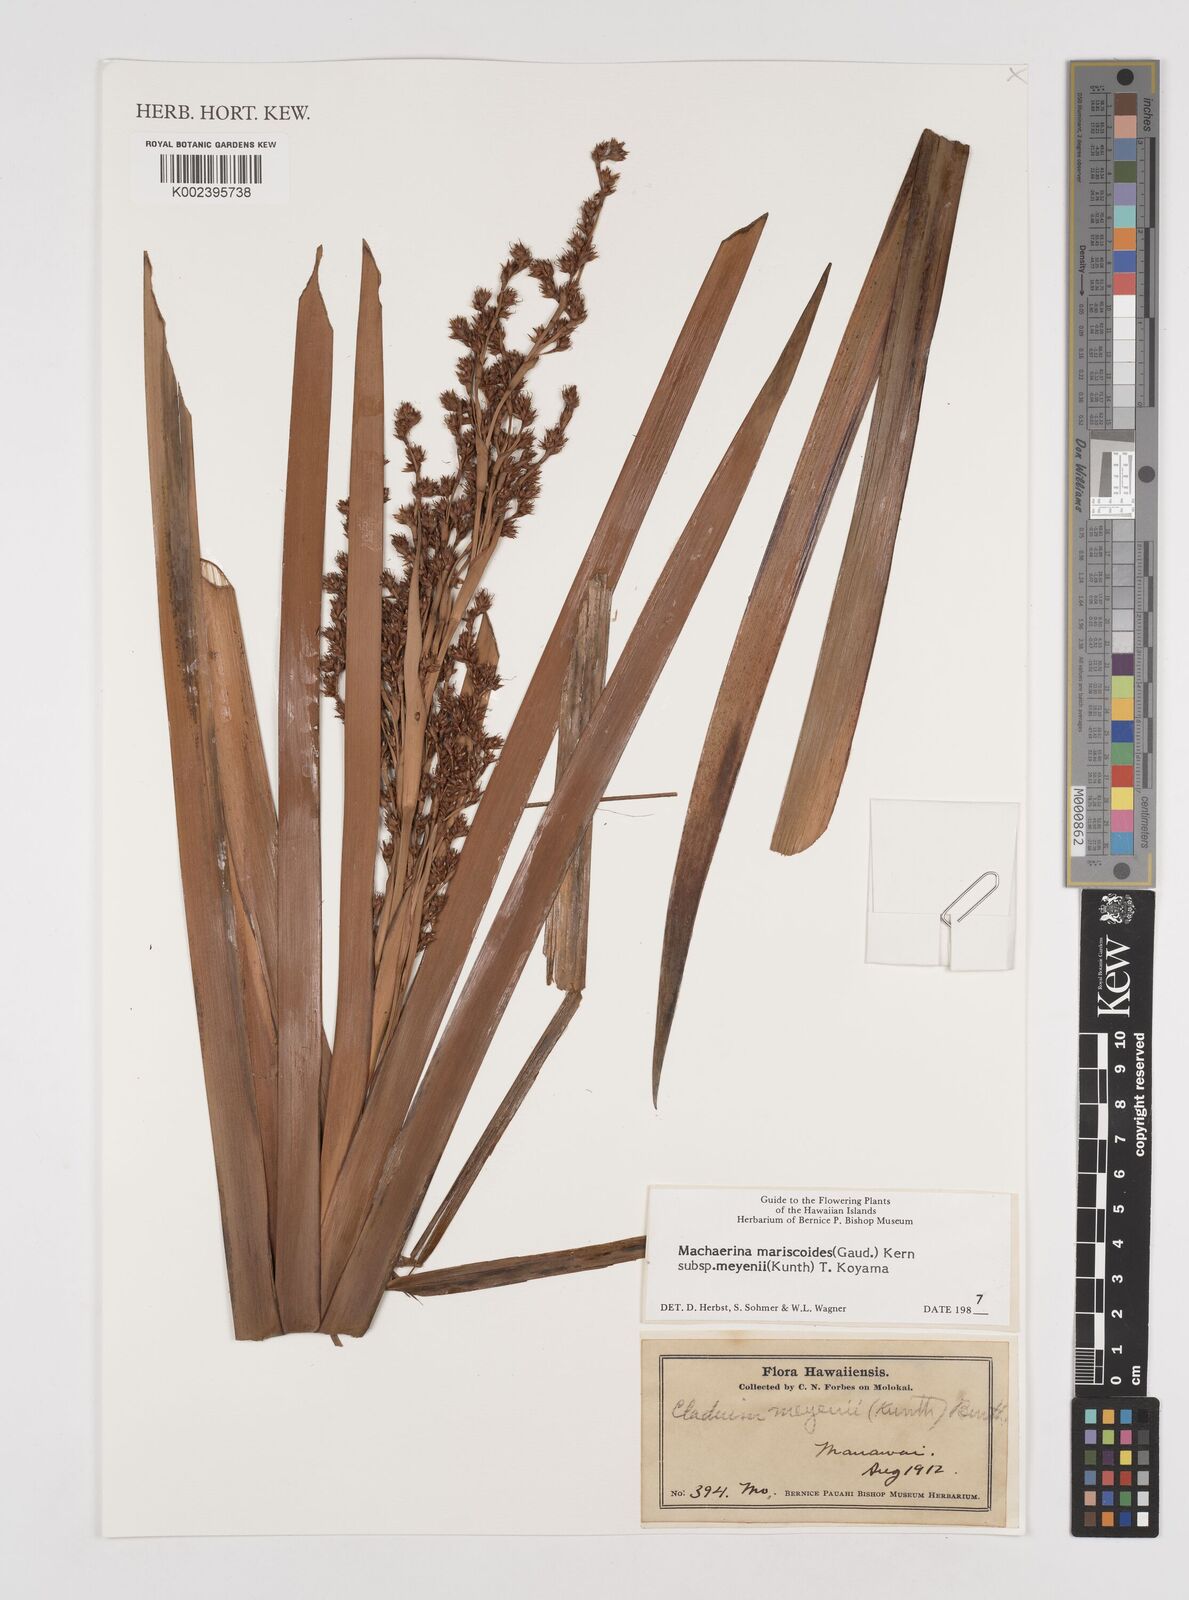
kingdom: Plantae
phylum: Tracheophyta
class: Liliopsida
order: Poales
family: Cyperaceae
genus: Machaerina
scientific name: Machaerina mariscoides
